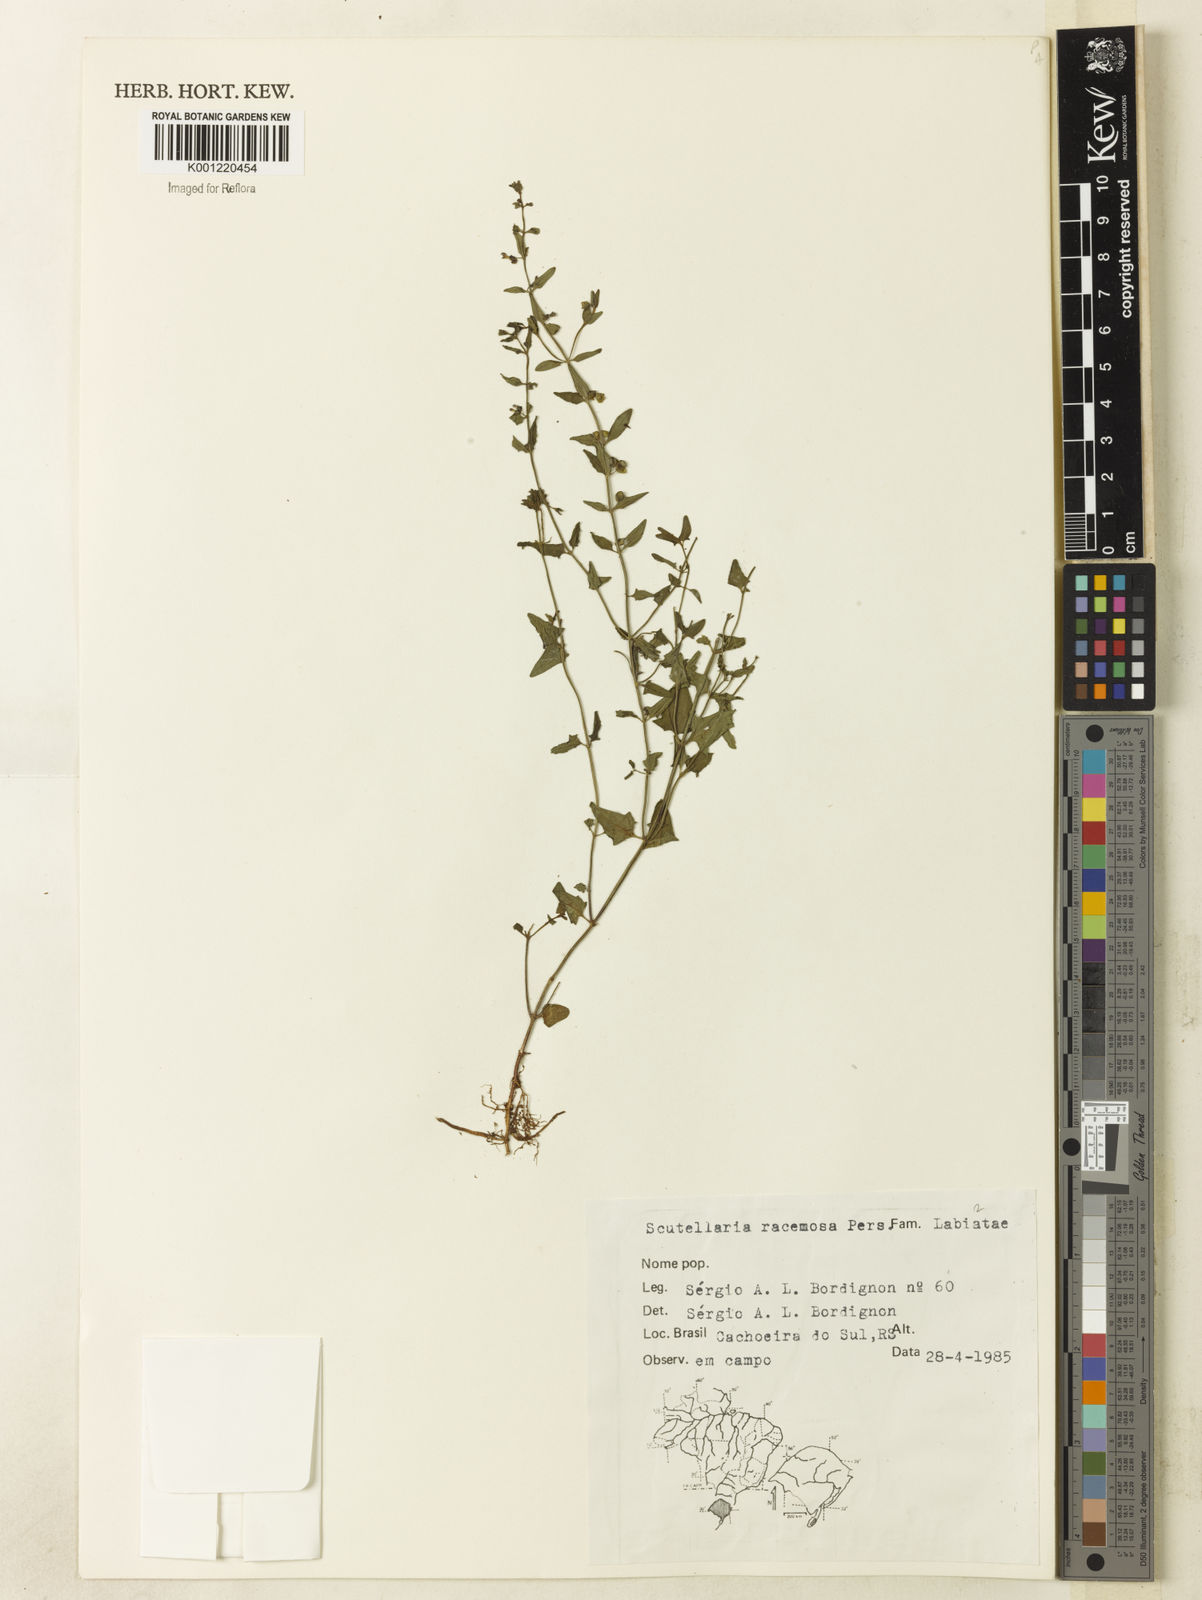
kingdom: Plantae
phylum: Tracheophyta
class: Magnoliopsida
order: Lamiales
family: Lamiaceae
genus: Scutellaria
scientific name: Scutellaria racemosa
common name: South american skullcap
